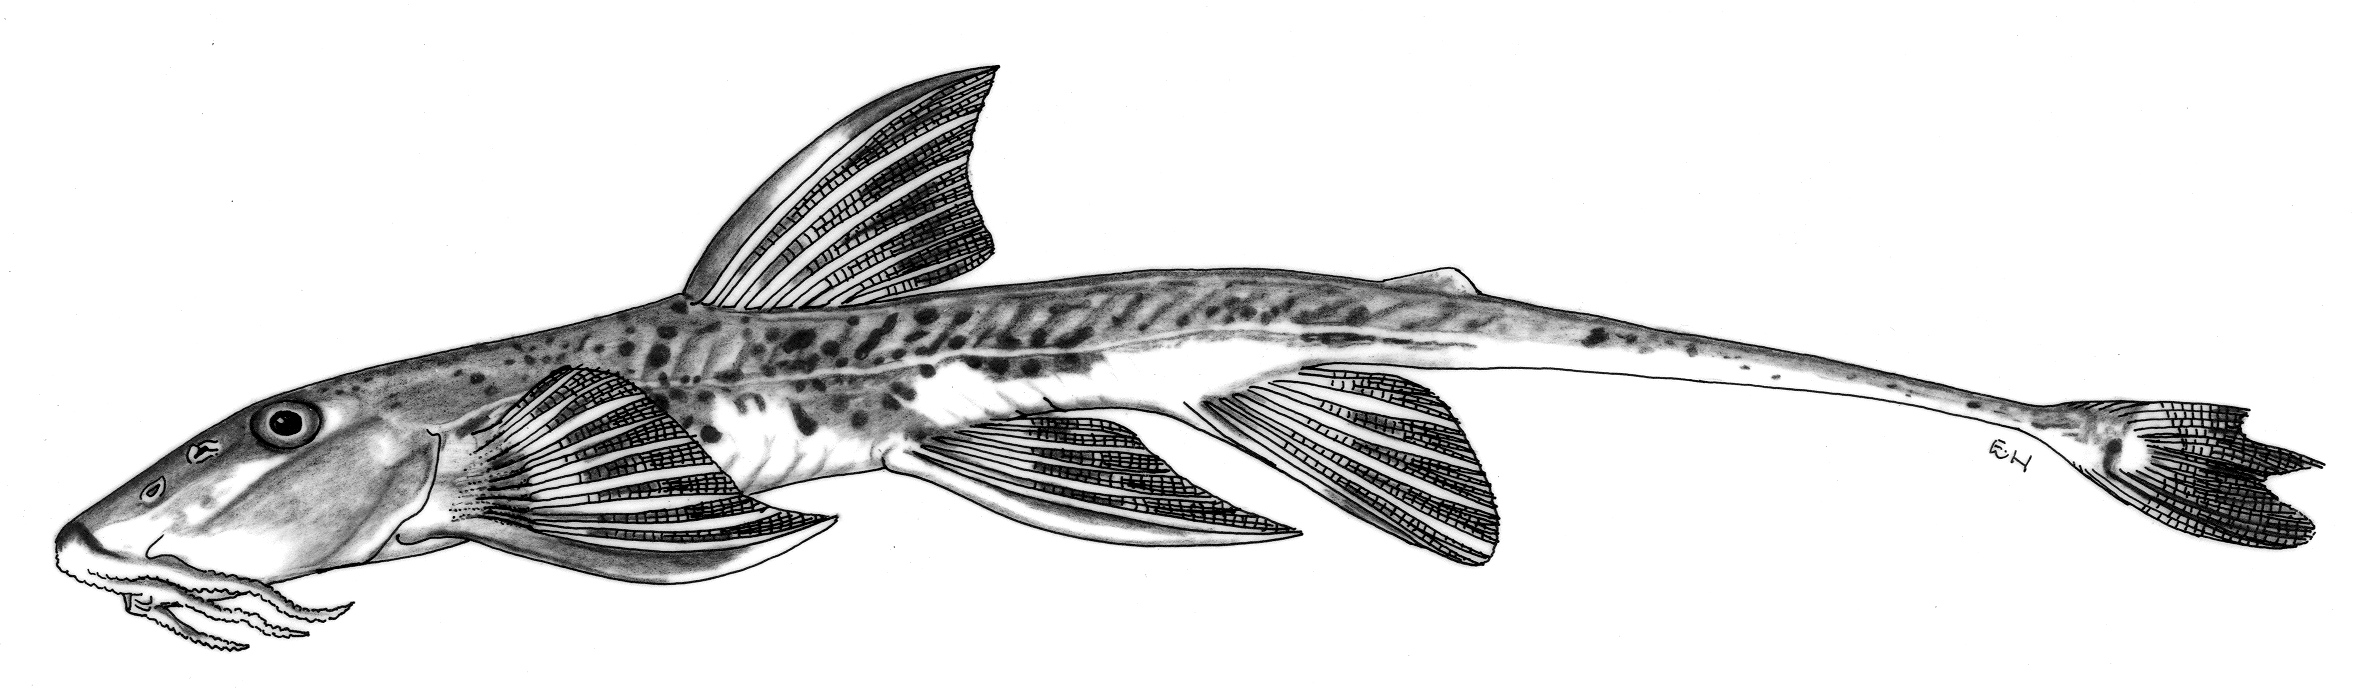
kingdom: Animalia
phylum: Chordata
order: Siluriformes
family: Amphiliidae
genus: Phractura
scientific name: Phractura stiassny
